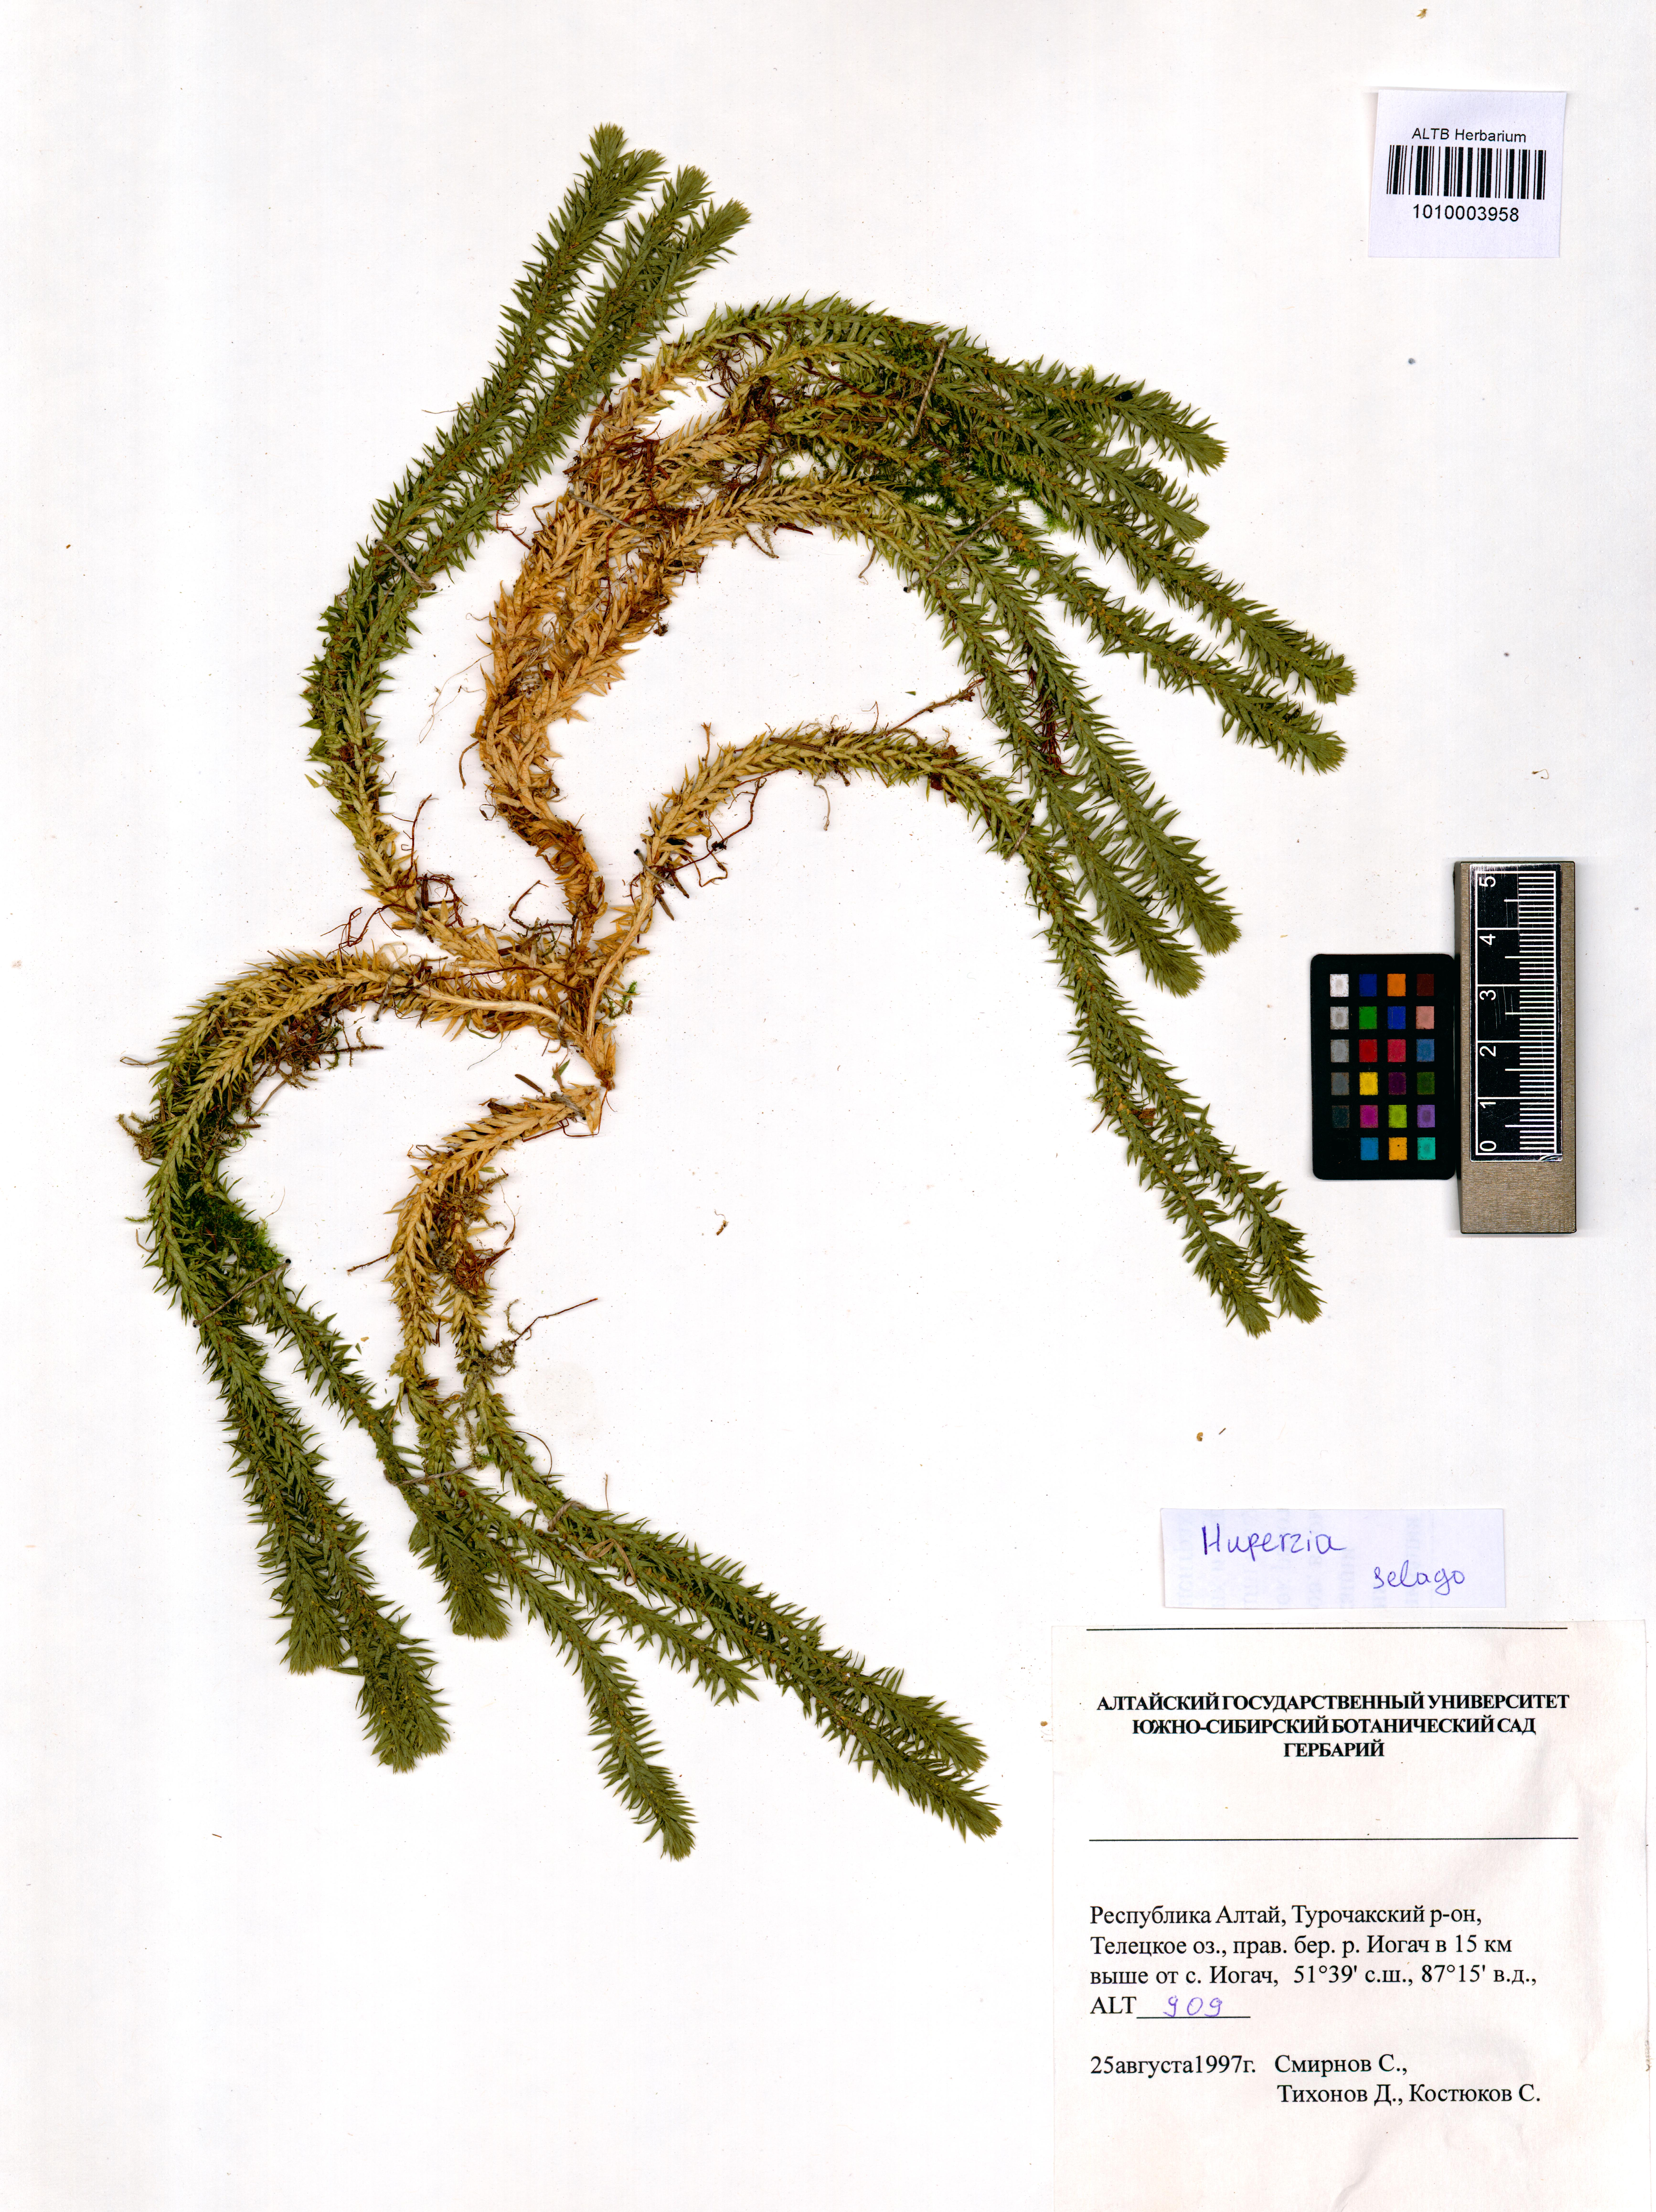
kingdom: Plantae
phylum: Tracheophyta
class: Lycopodiopsida
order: Lycopodiales
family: Lycopodiaceae
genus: Huperzia
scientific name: Huperzia selago
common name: Northern firmoss
